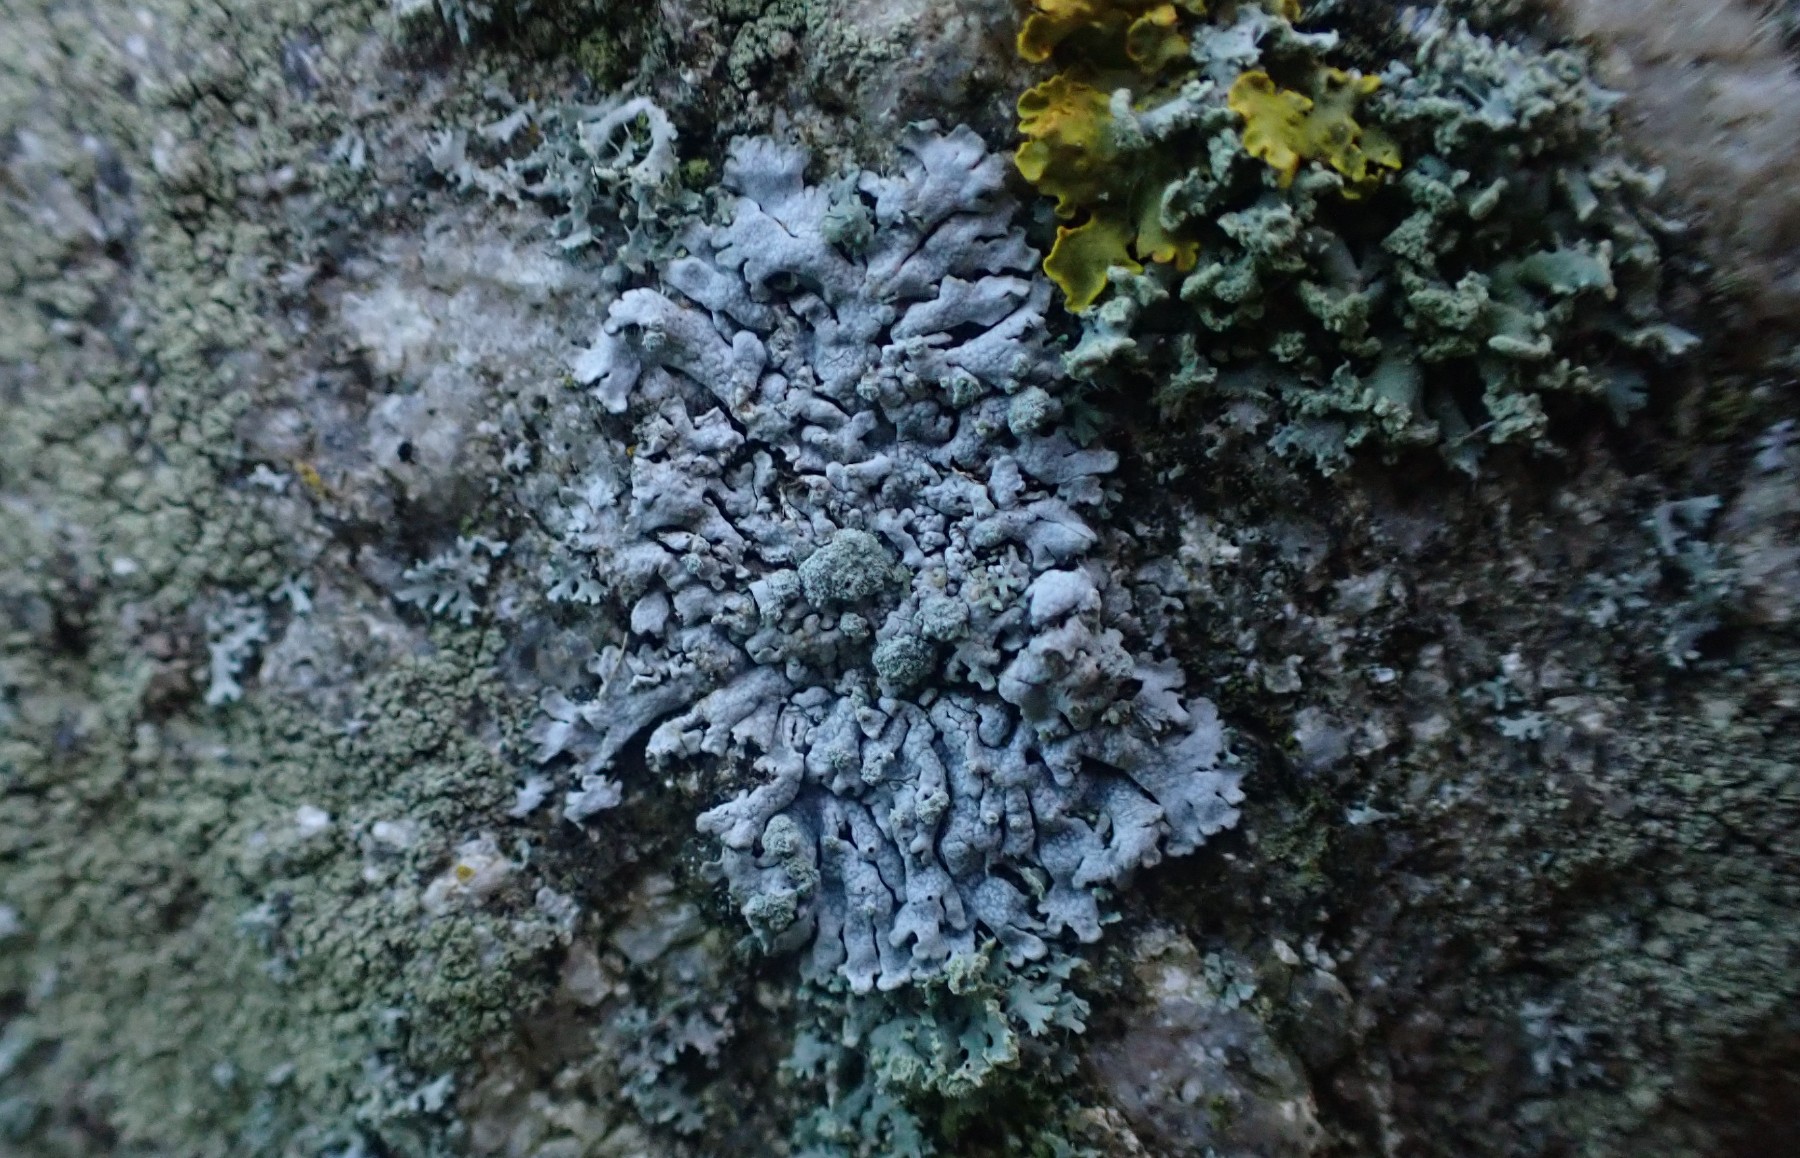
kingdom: Fungi
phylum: Ascomycota
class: Lecanoromycetes
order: Caliciales
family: Physciaceae
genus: Physcia
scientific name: Physcia caesia
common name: blågrå rosetlav
